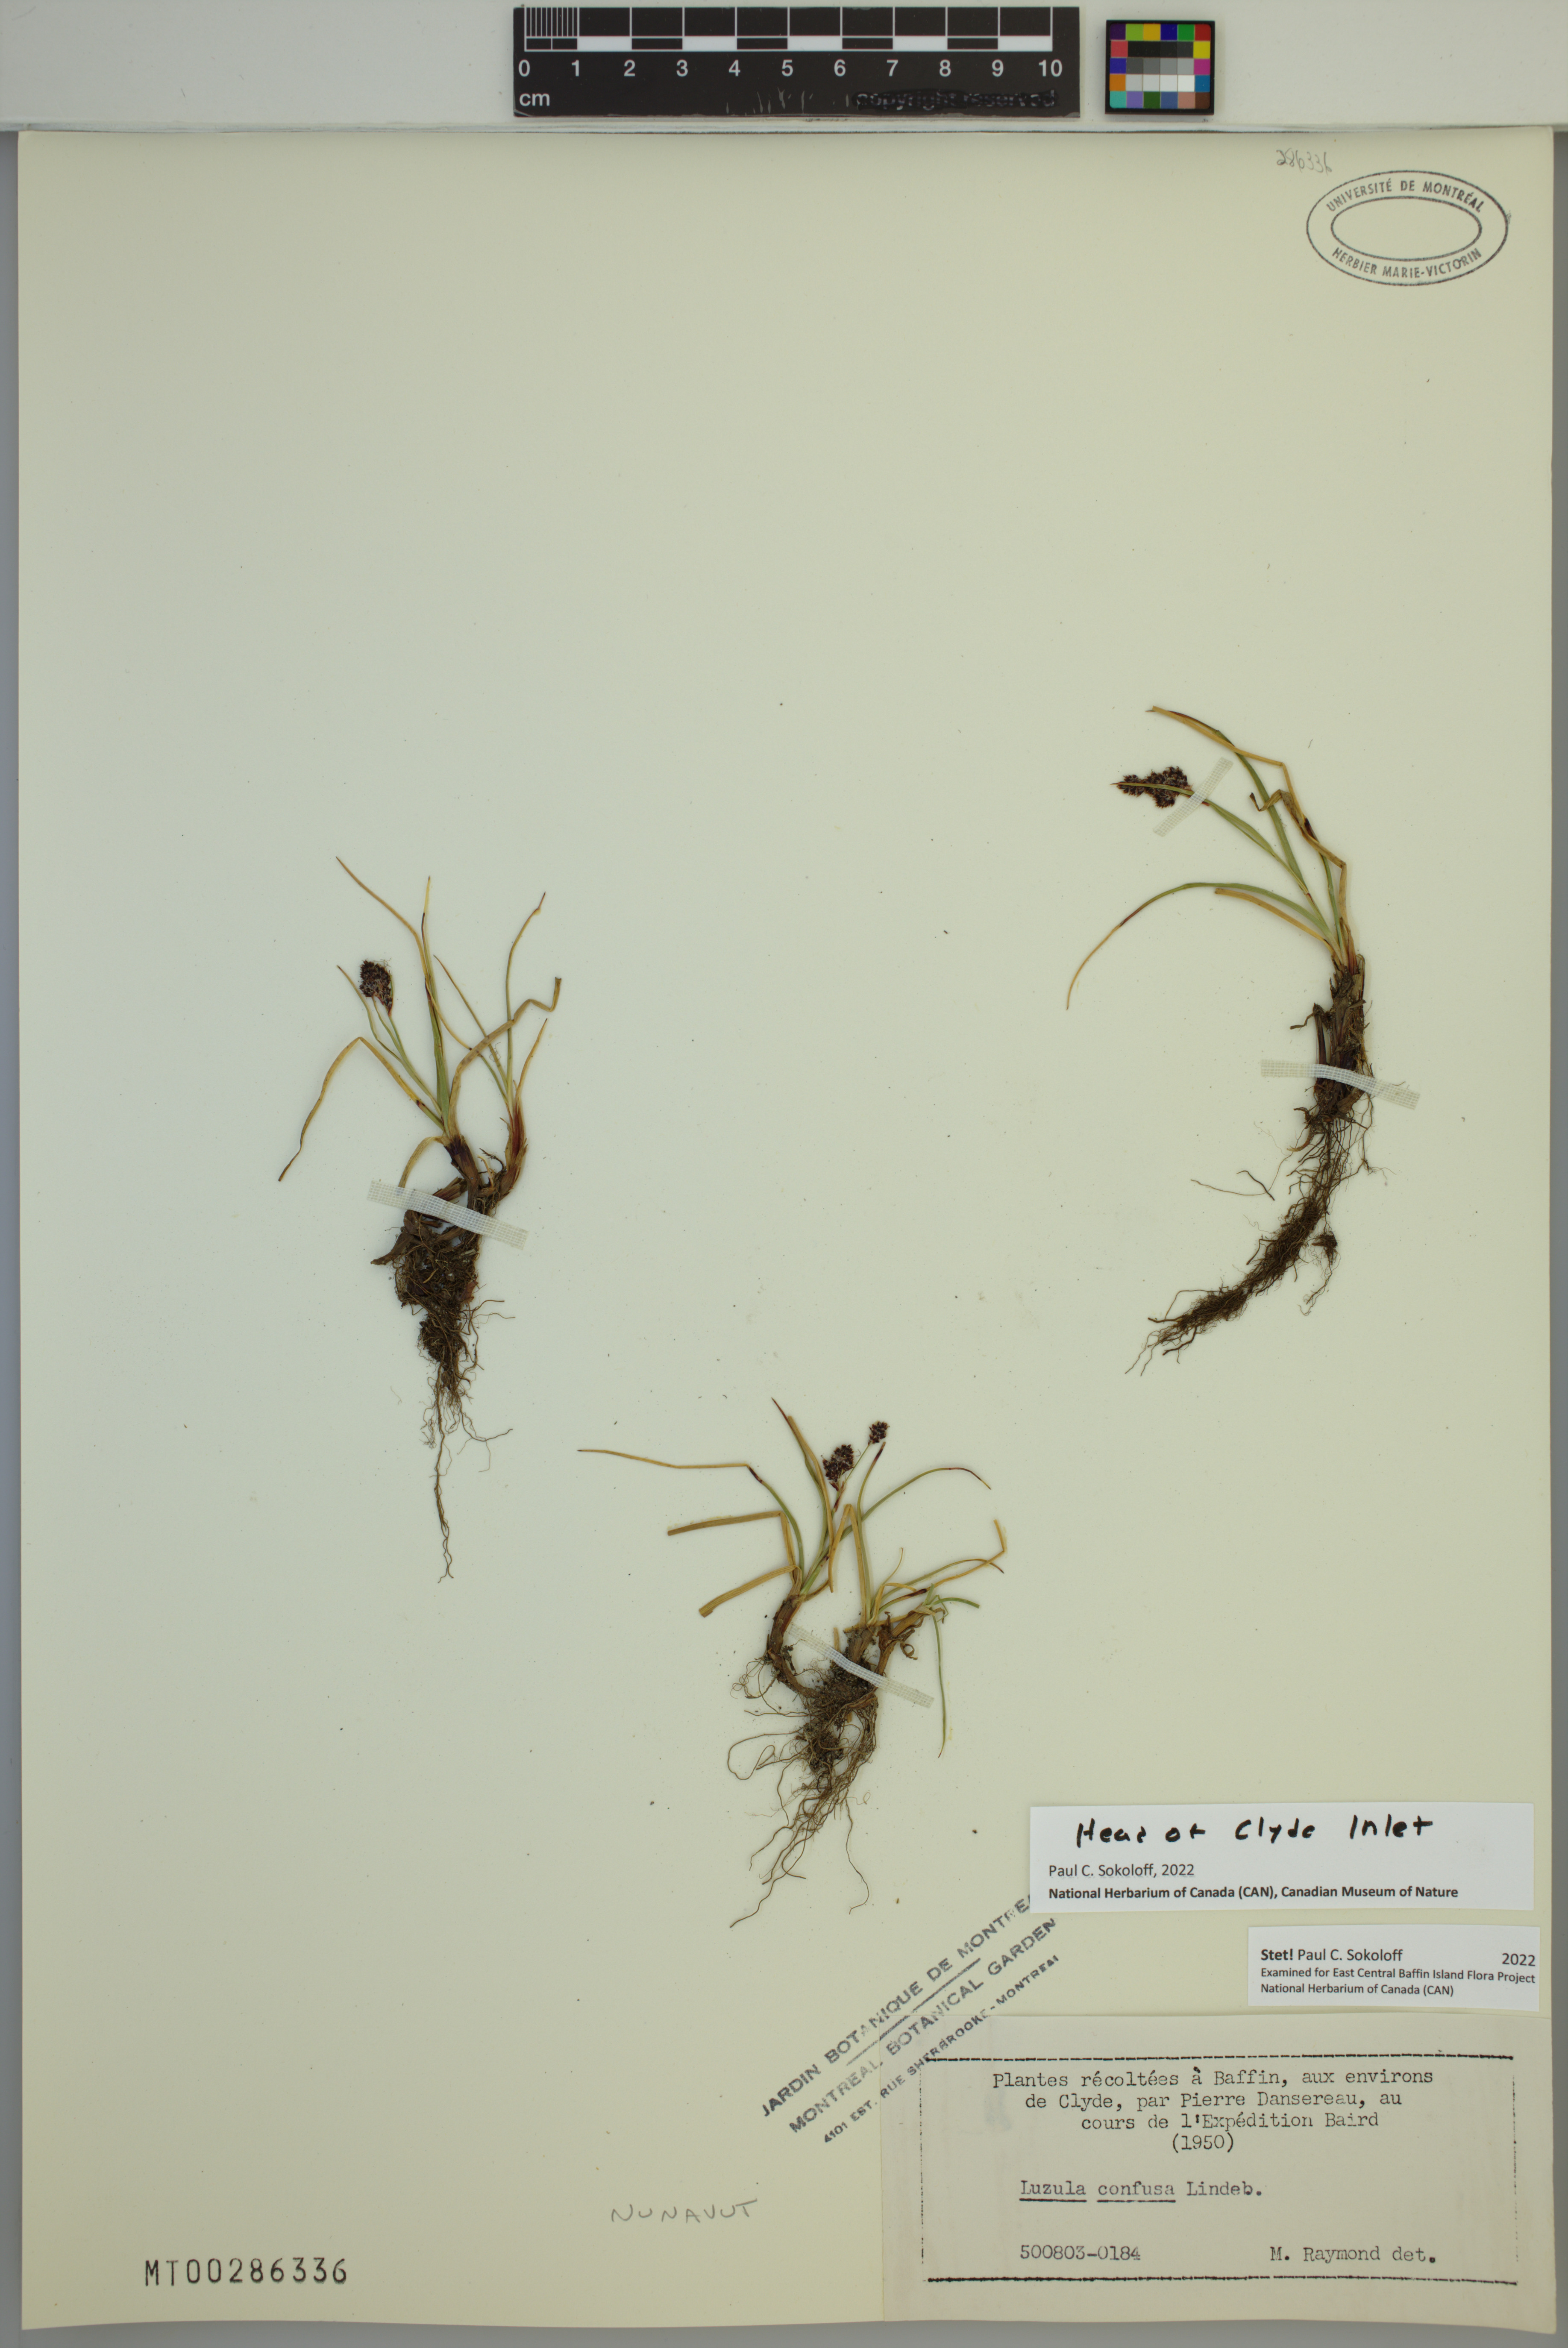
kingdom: Plantae
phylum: Tracheophyta
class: Liliopsida
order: Poales
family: Juncaceae
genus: Luzula
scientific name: Luzula confusa
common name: Northern wood rush
